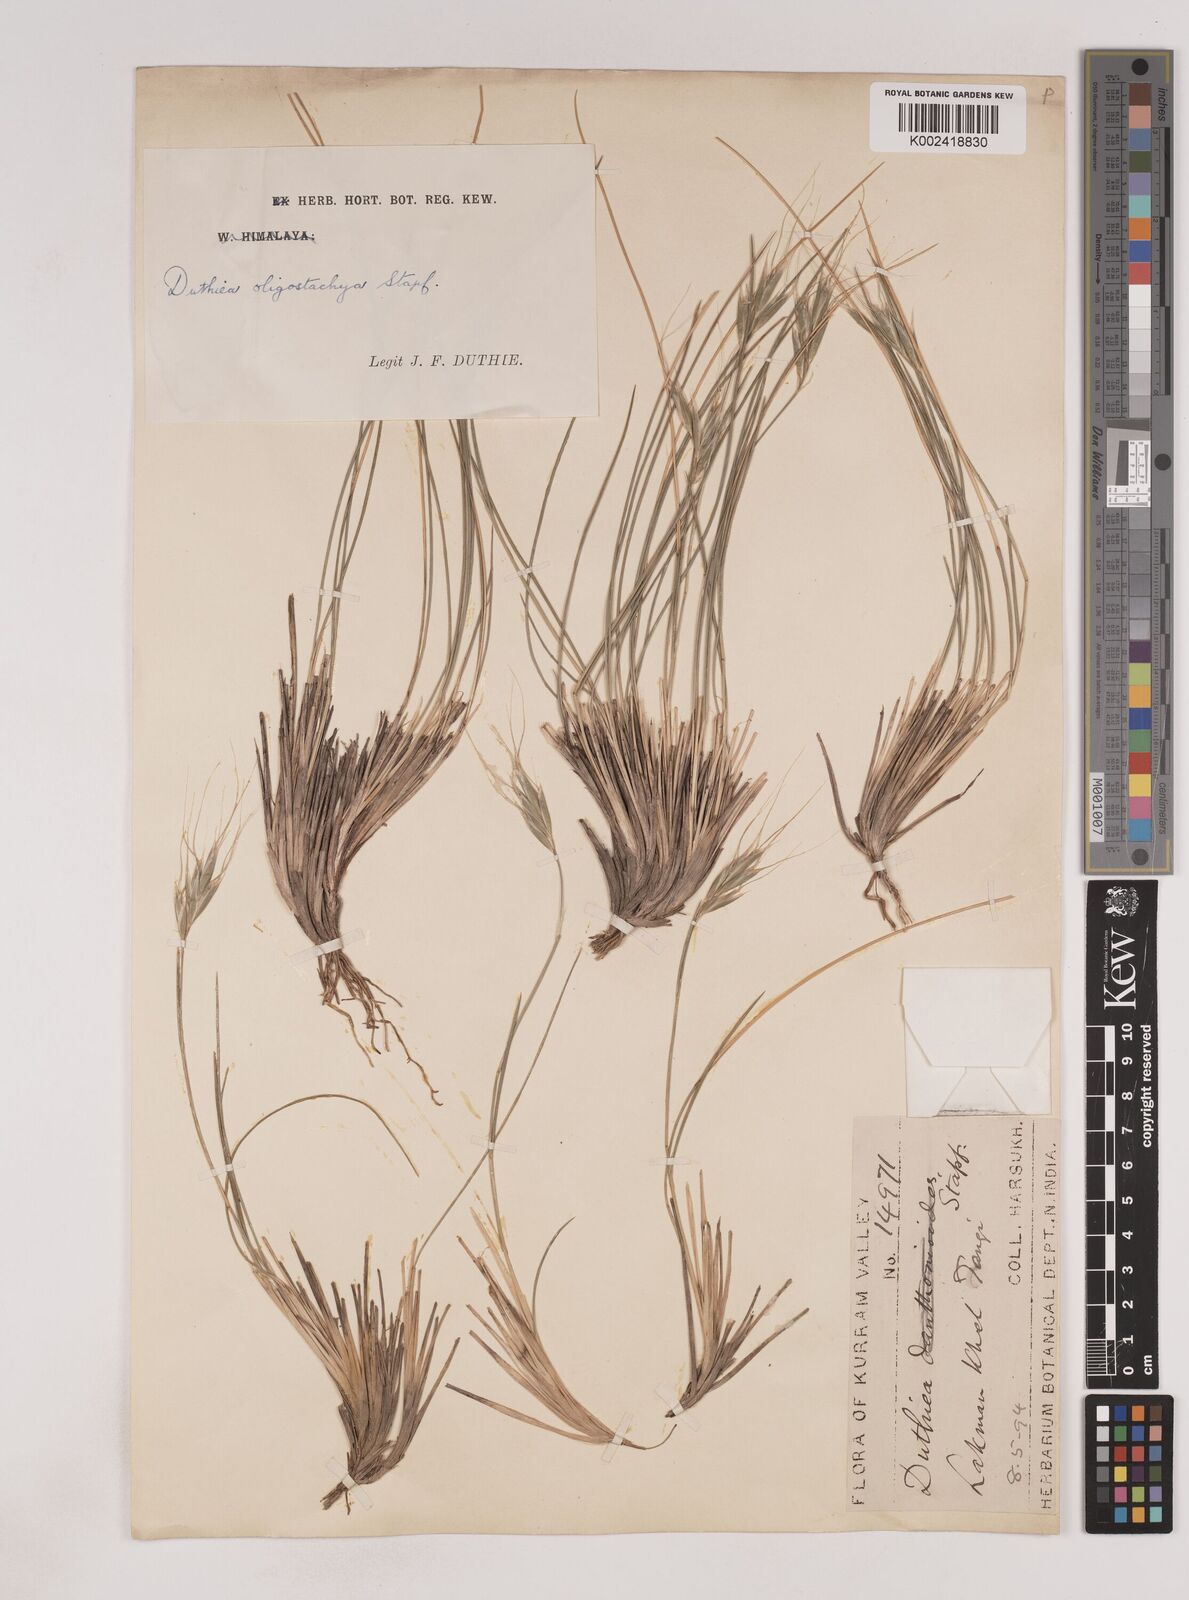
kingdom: Plantae
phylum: Tracheophyta
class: Liliopsida
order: Poales
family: Poaceae
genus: Duthiea
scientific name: Duthiea oligostachya
